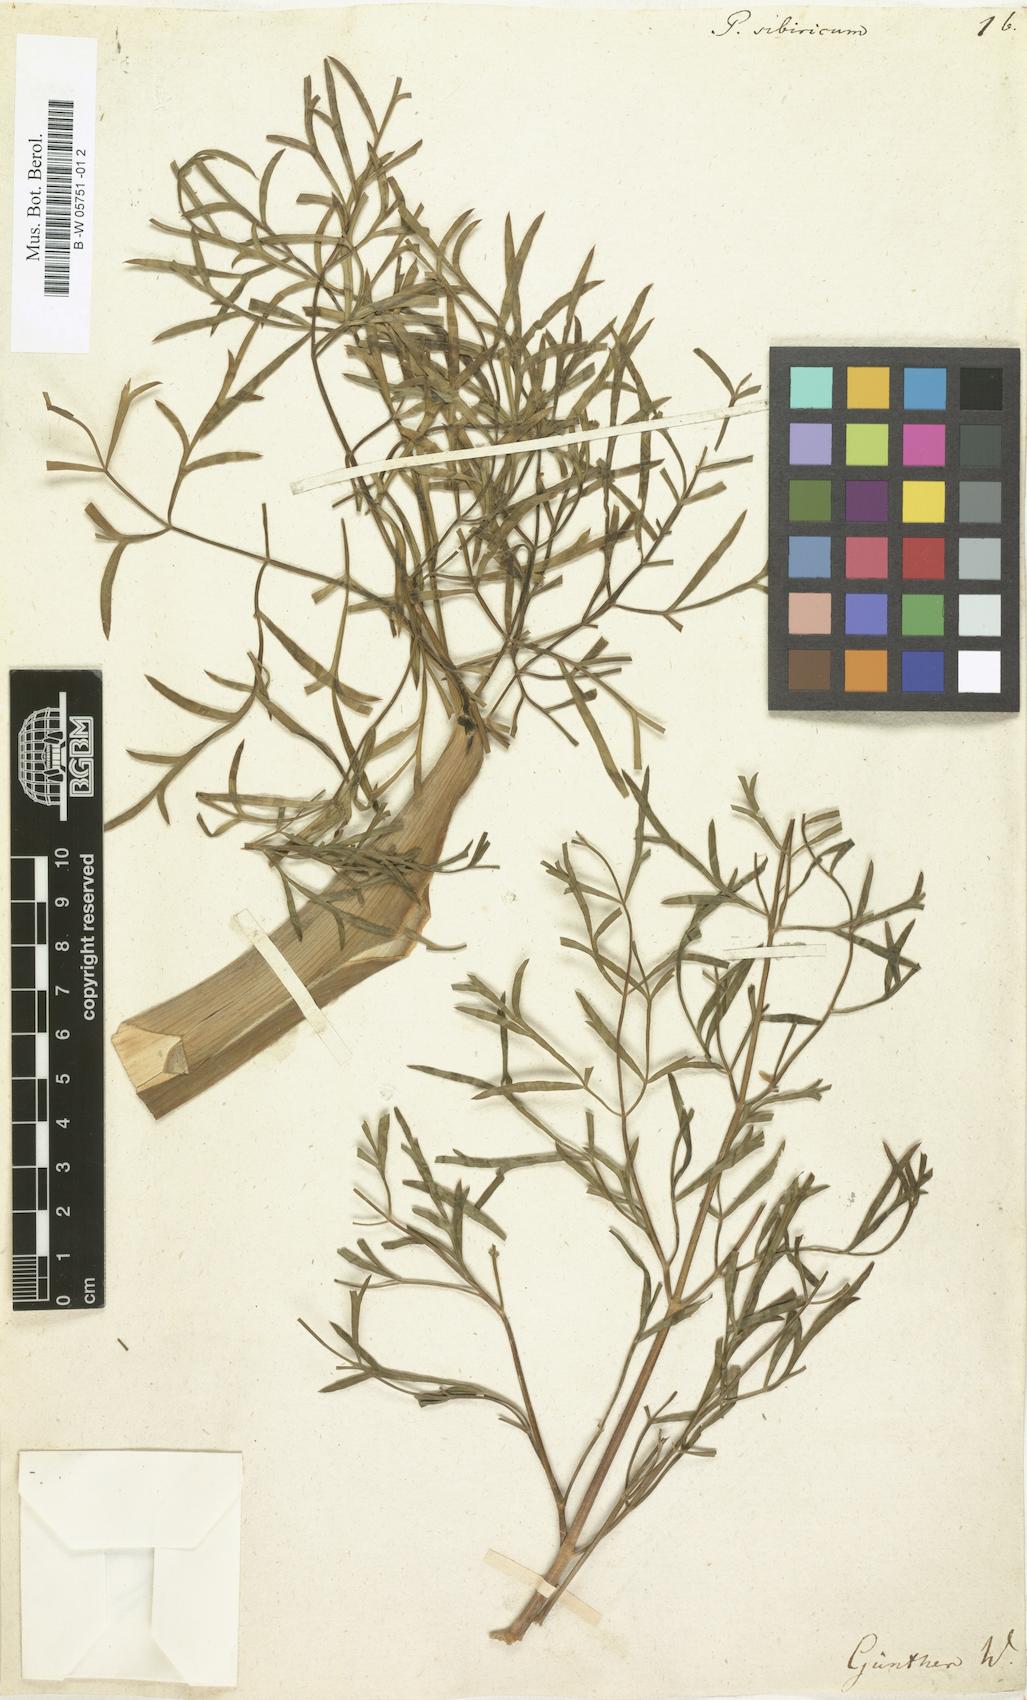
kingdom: Plantae
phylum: Tracheophyta
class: Magnoliopsida
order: Apiales
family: Apiaceae
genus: Ferula
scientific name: Ferula
